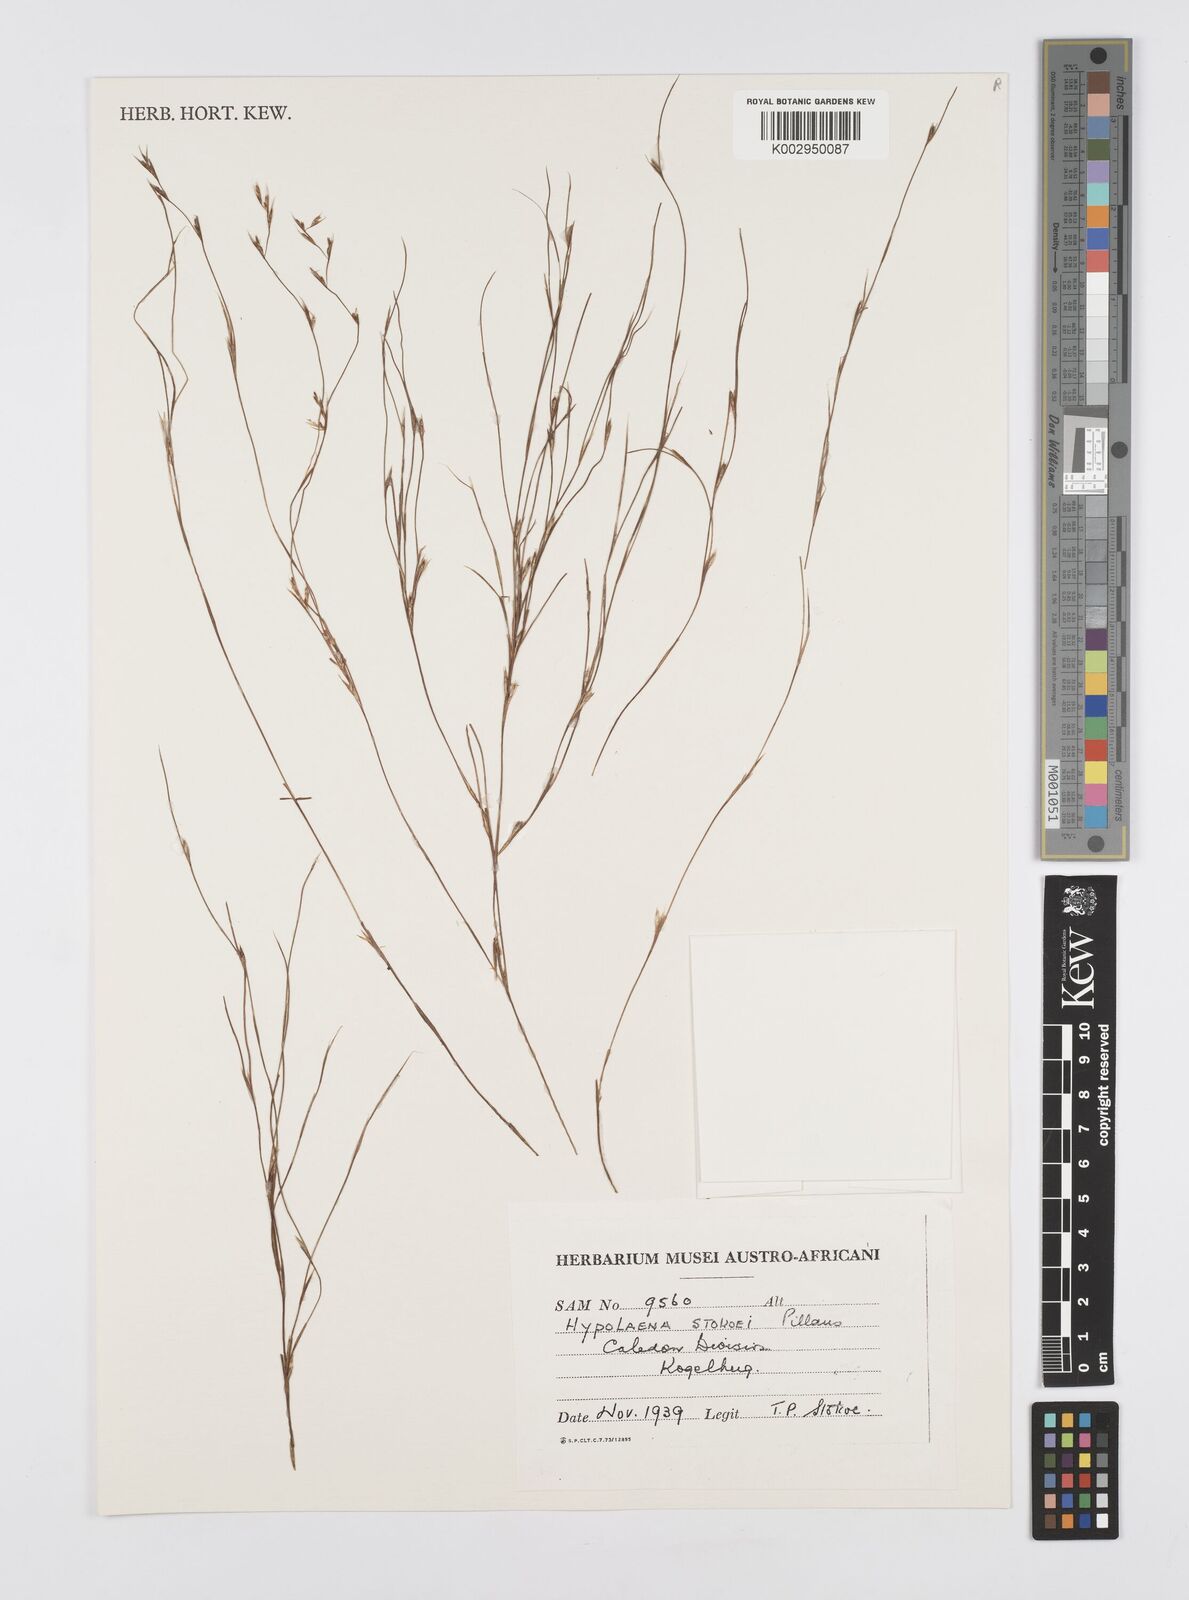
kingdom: Plantae
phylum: Tracheophyta
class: Liliopsida
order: Poales
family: Restionaceae
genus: Anthochortus
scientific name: Anthochortus laxiflorus
